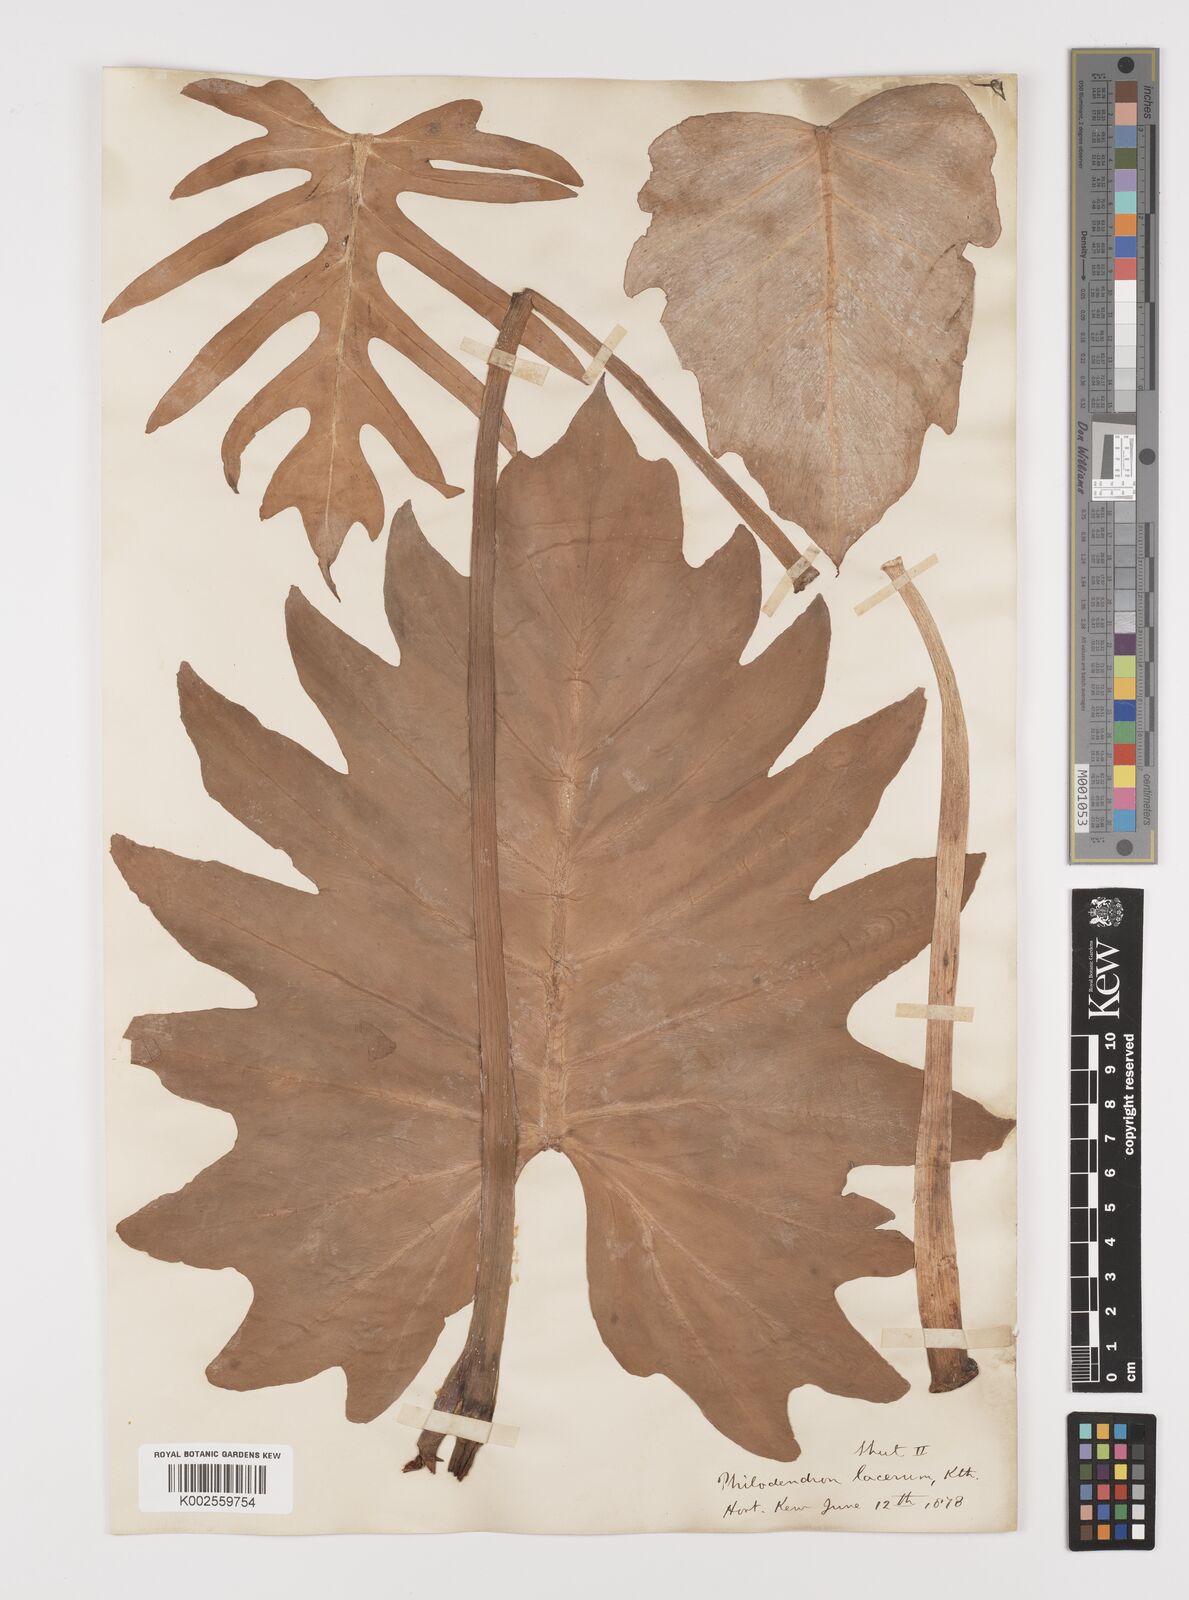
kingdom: Plantae
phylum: Tracheophyta
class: Liliopsida
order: Alismatales
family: Araceae
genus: Philodendron
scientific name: Philodendron lacerum
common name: Philodendron
